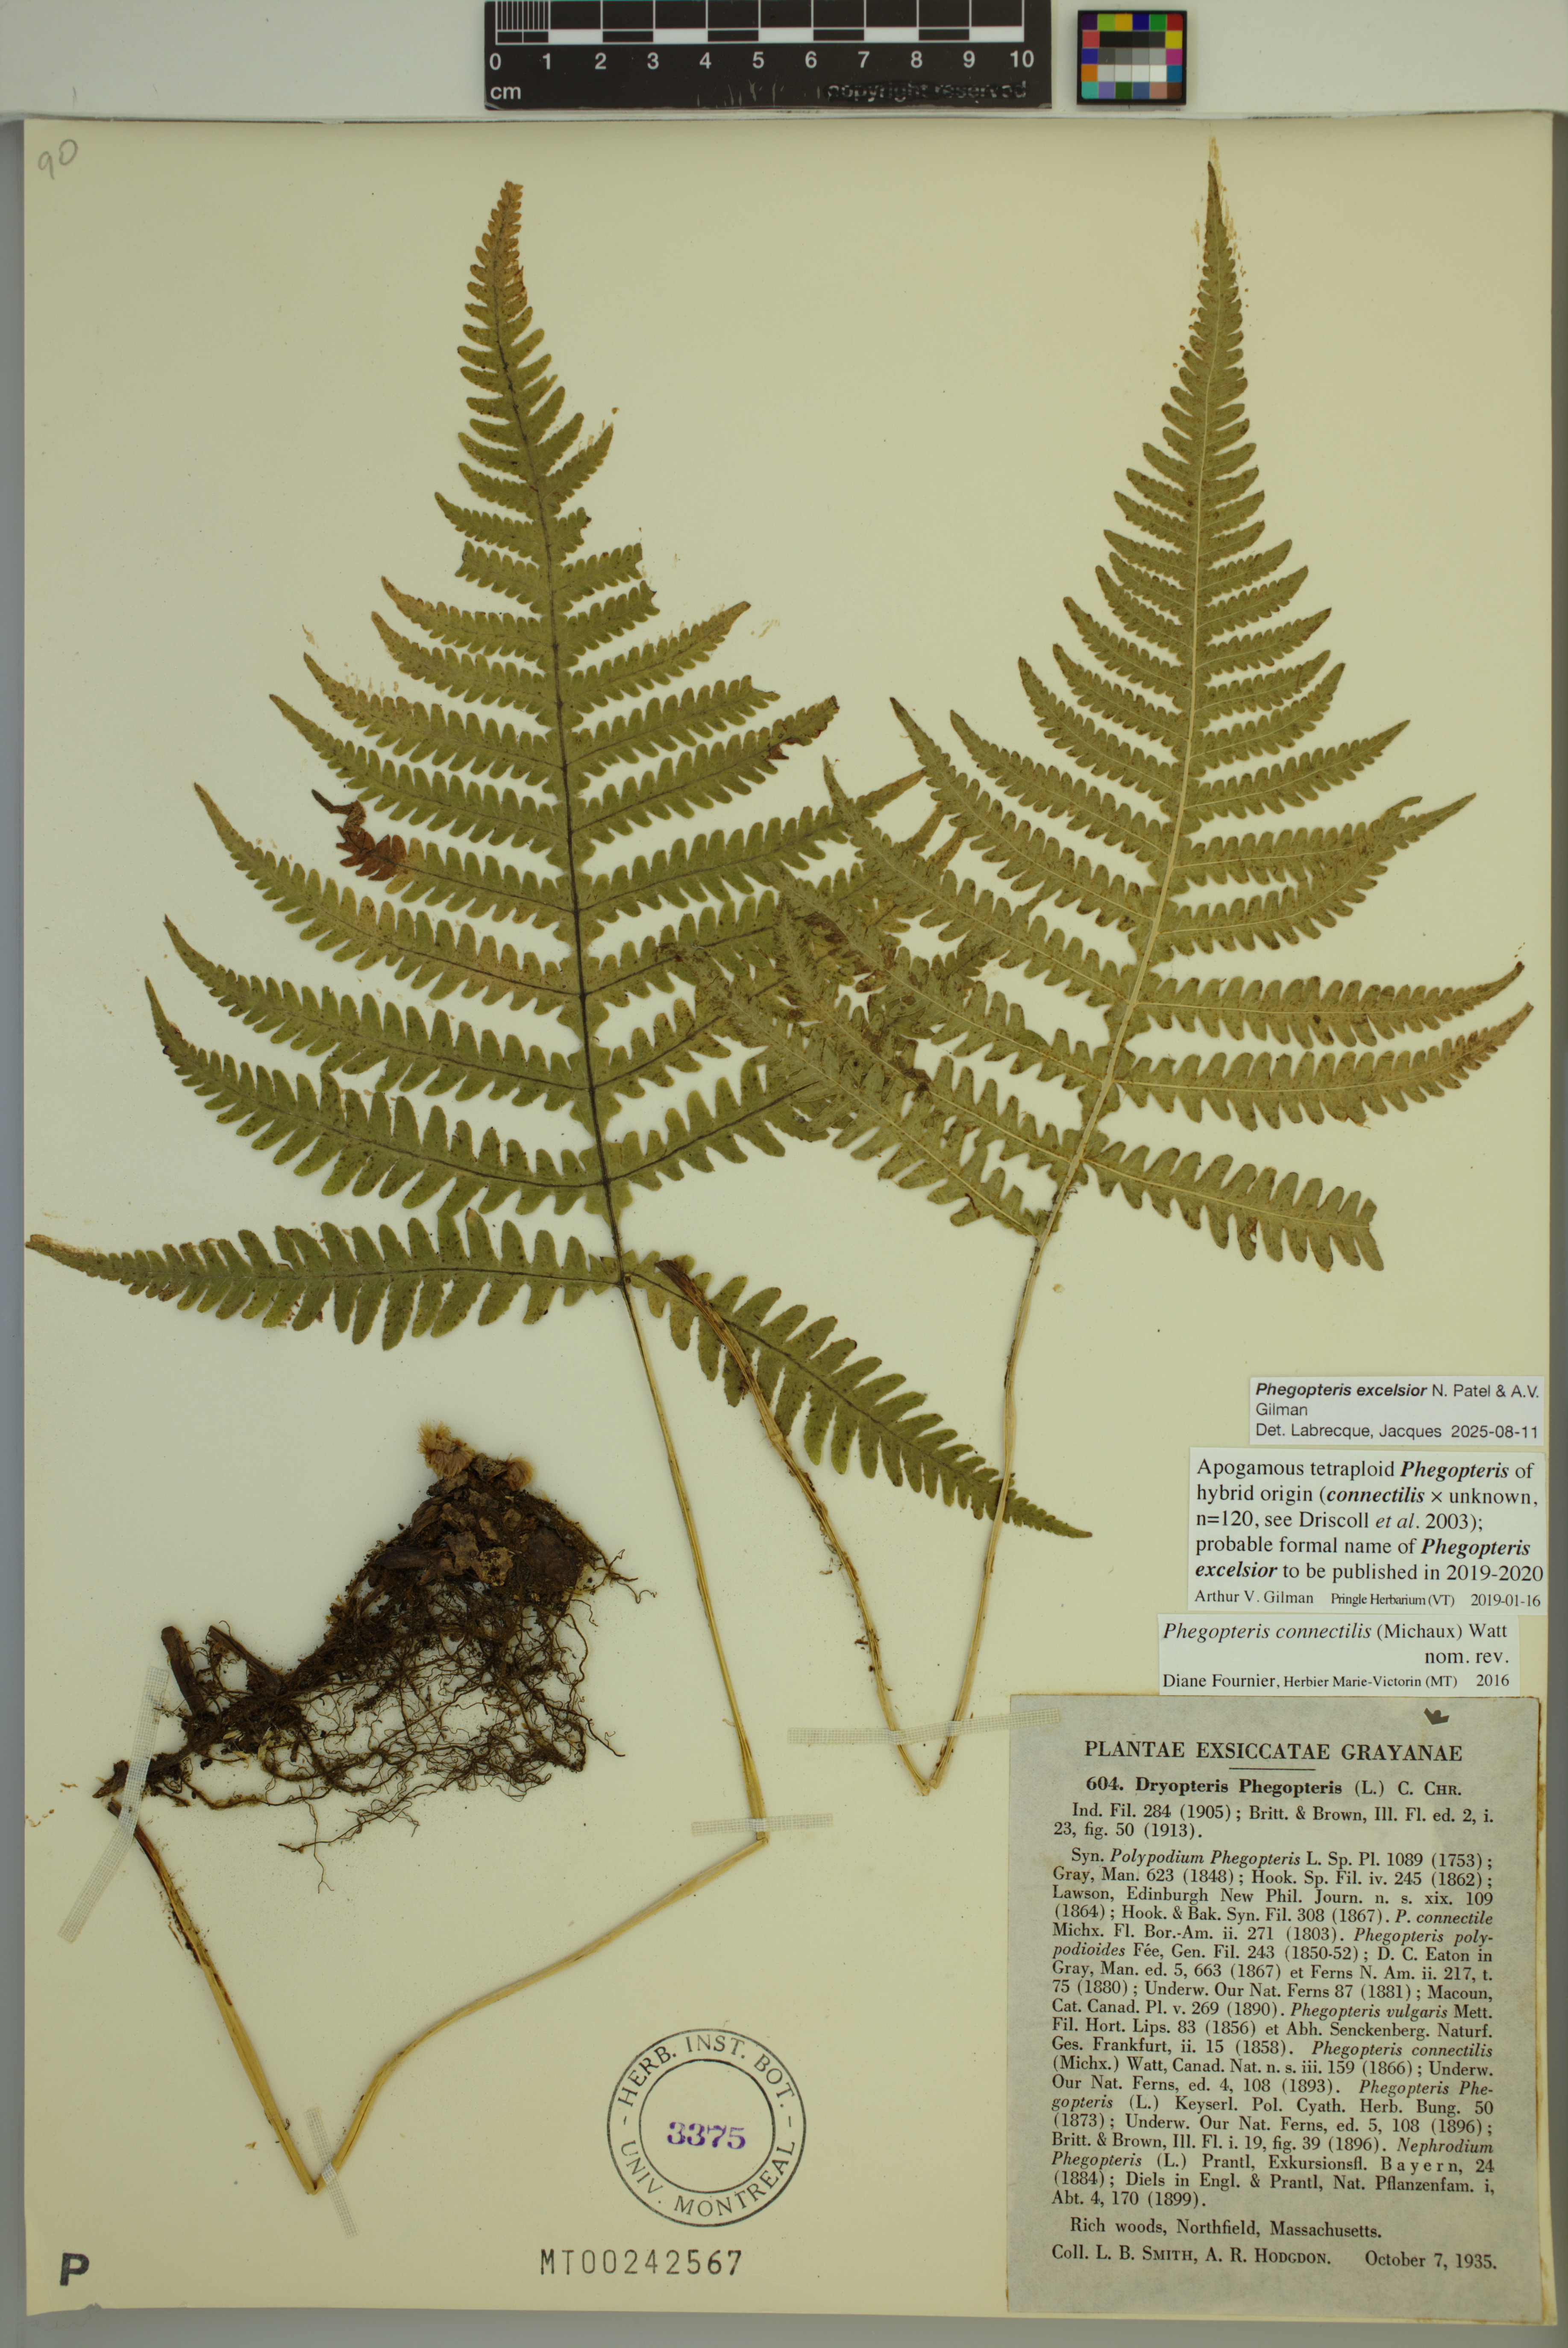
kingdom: Plantae
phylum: Tracheophyta
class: Polypodiopsida
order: Polypodiales
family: Thelypteridaceae
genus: Phegopteris
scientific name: Phegopteris
